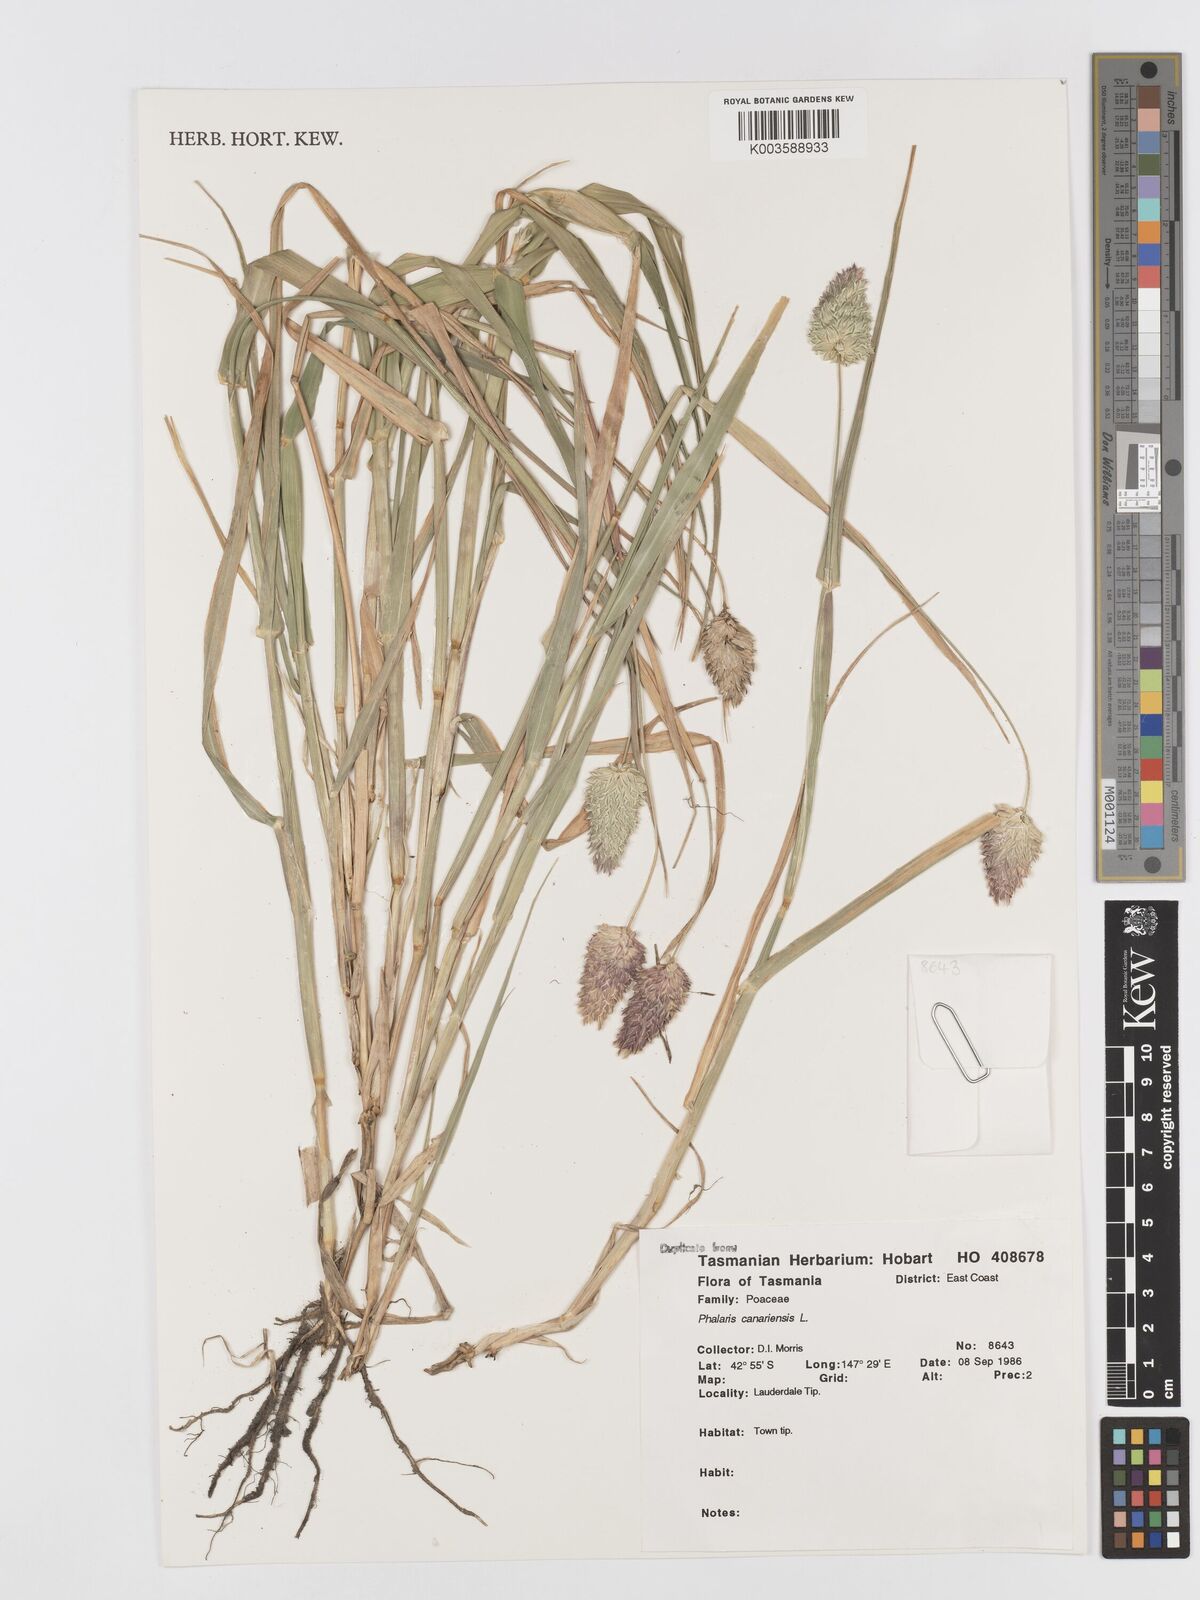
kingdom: Plantae
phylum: Tracheophyta
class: Liliopsida
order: Poales
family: Poaceae
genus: Phalaris
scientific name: Phalaris canariensis
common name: Annual canarygrass
